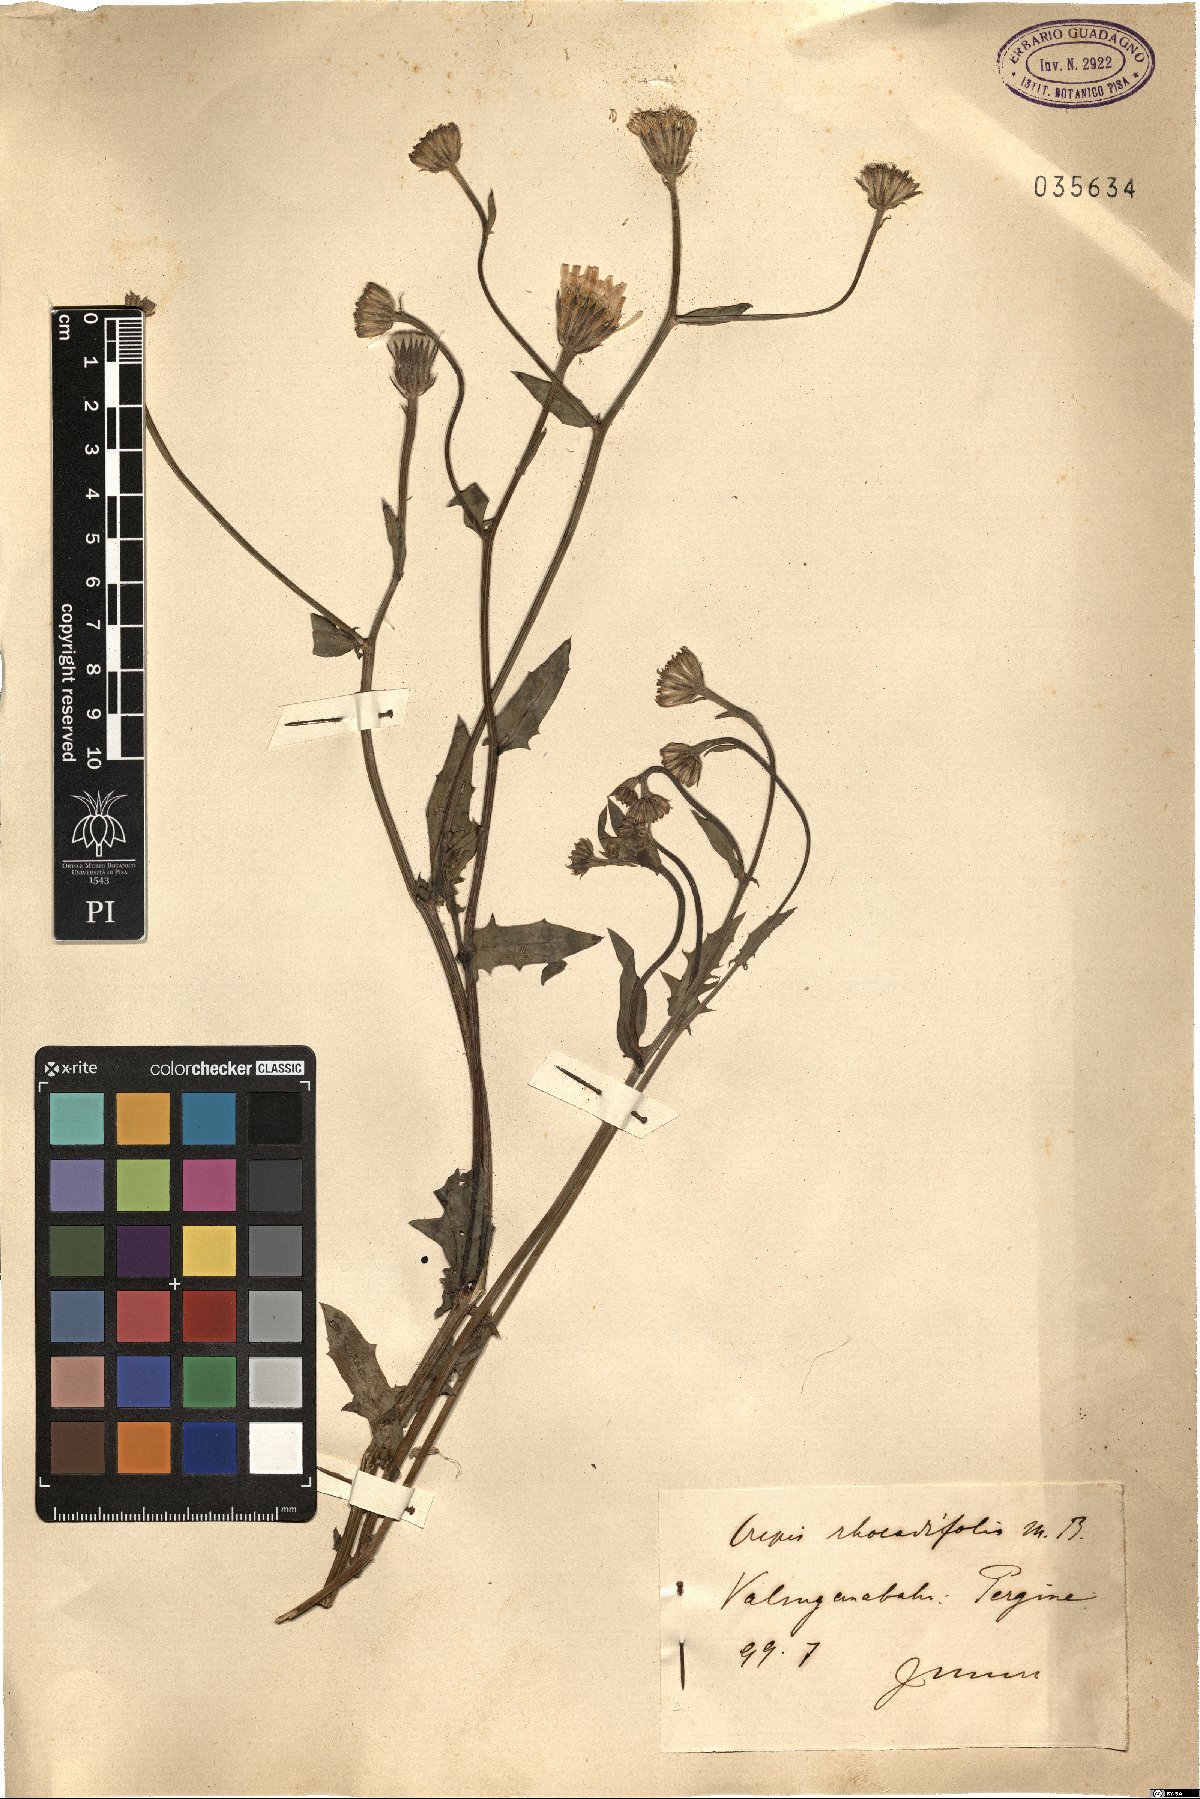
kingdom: Plantae
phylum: Tracheophyta
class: Magnoliopsida
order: Asterales
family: Asteraceae
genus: Crepis
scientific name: Crepis foetida
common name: Stinking hawk's-beard
